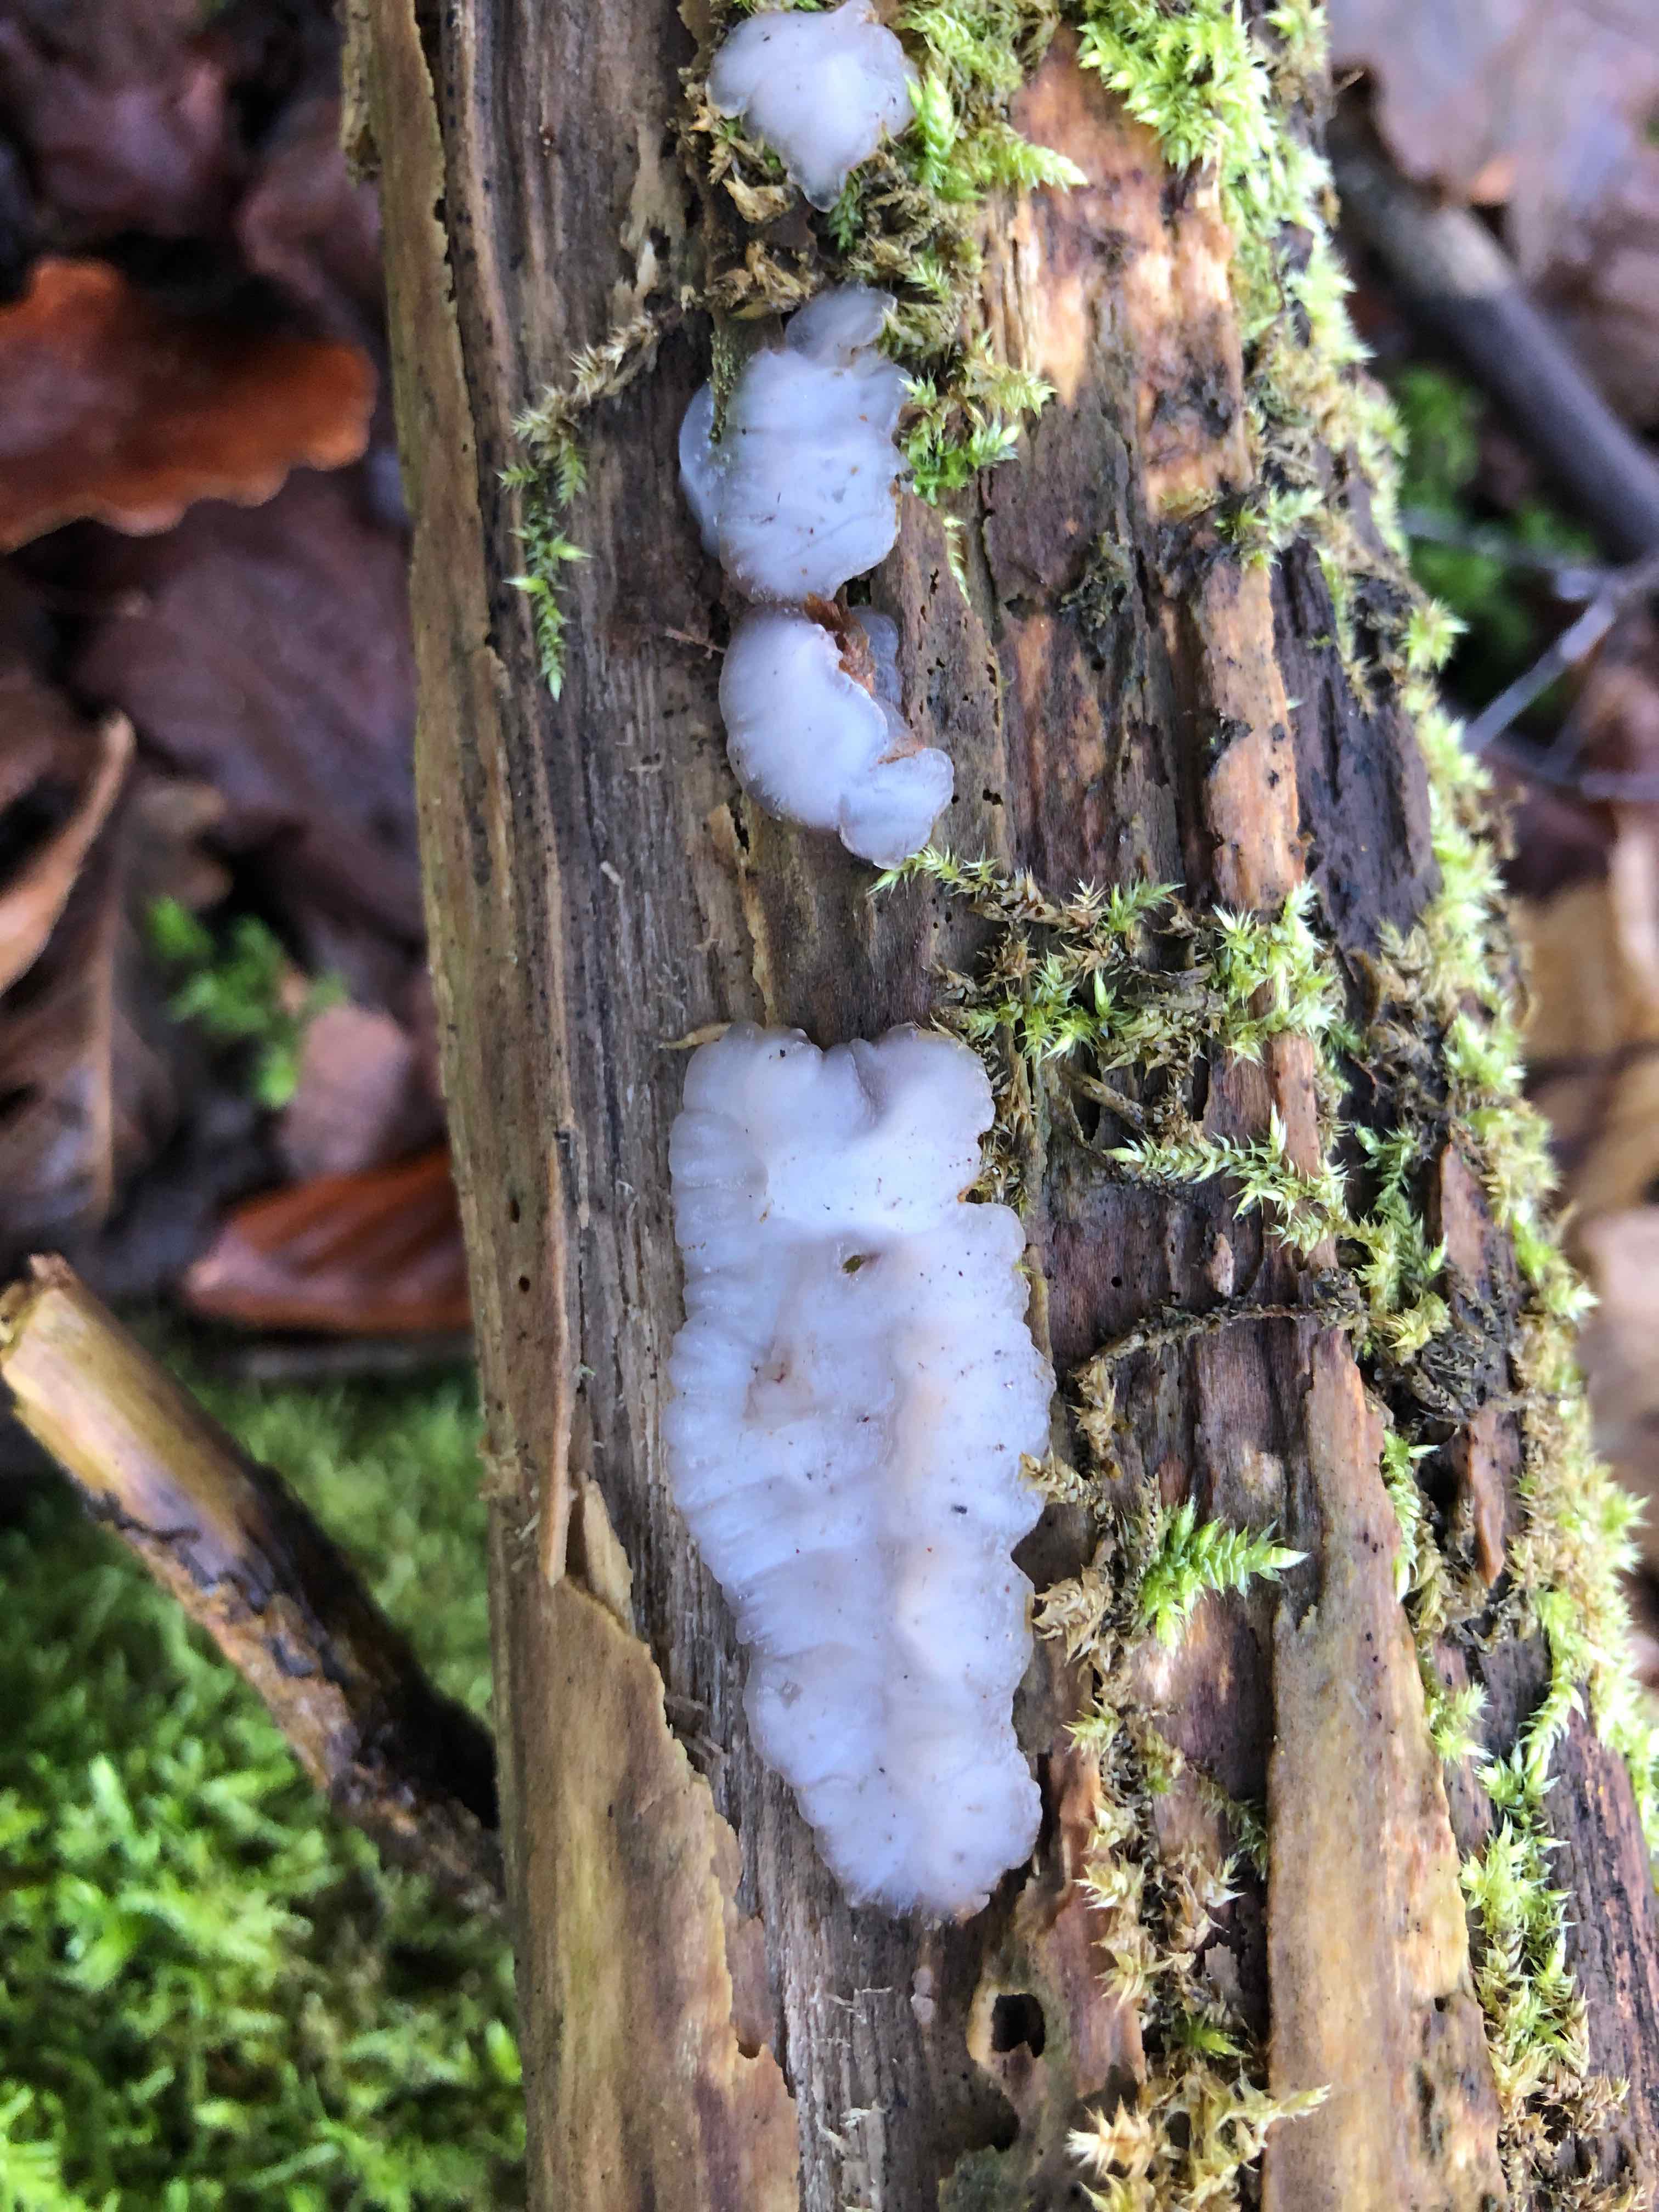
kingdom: Fungi
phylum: Basidiomycota
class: Agaricomycetes
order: Auriculariales
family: Auriculariaceae
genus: Exidia
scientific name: Exidia thuretiana
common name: hvidlig bævretop
